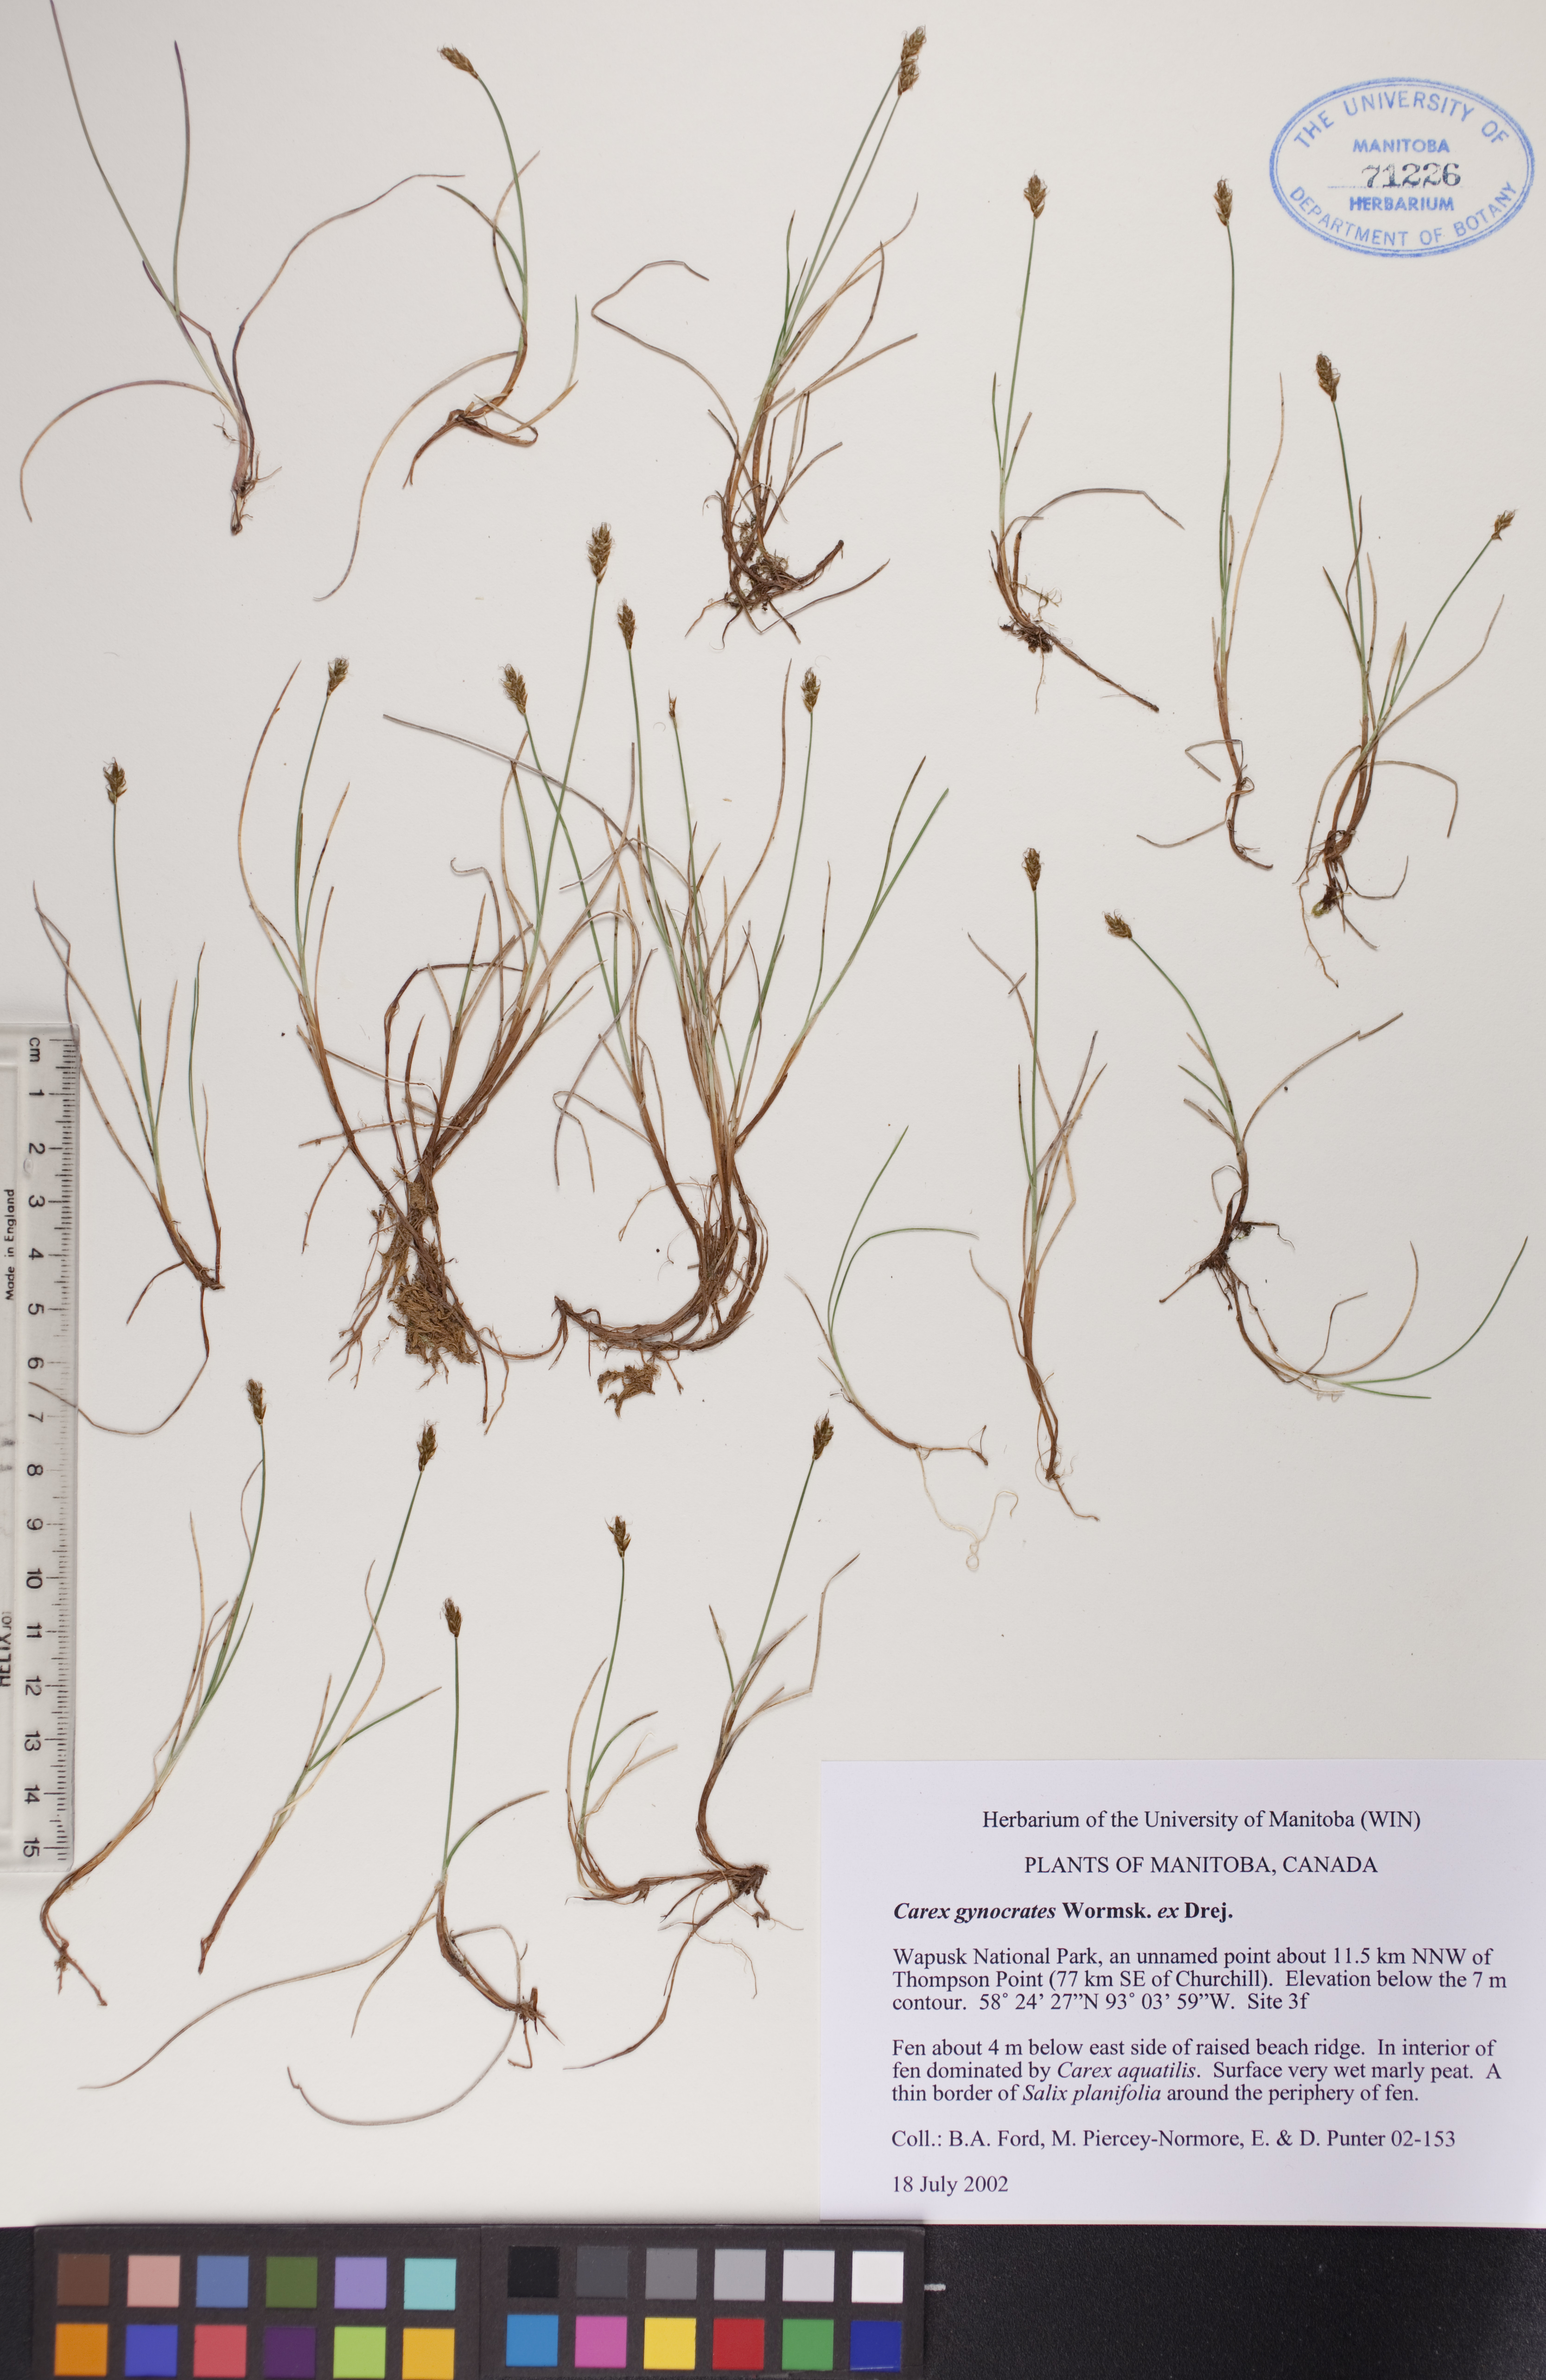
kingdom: Plantae
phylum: Tracheophyta
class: Liliopsida
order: Poales
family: Cyperaceae
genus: Carex
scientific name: Carex nardina
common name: Nard sedge
